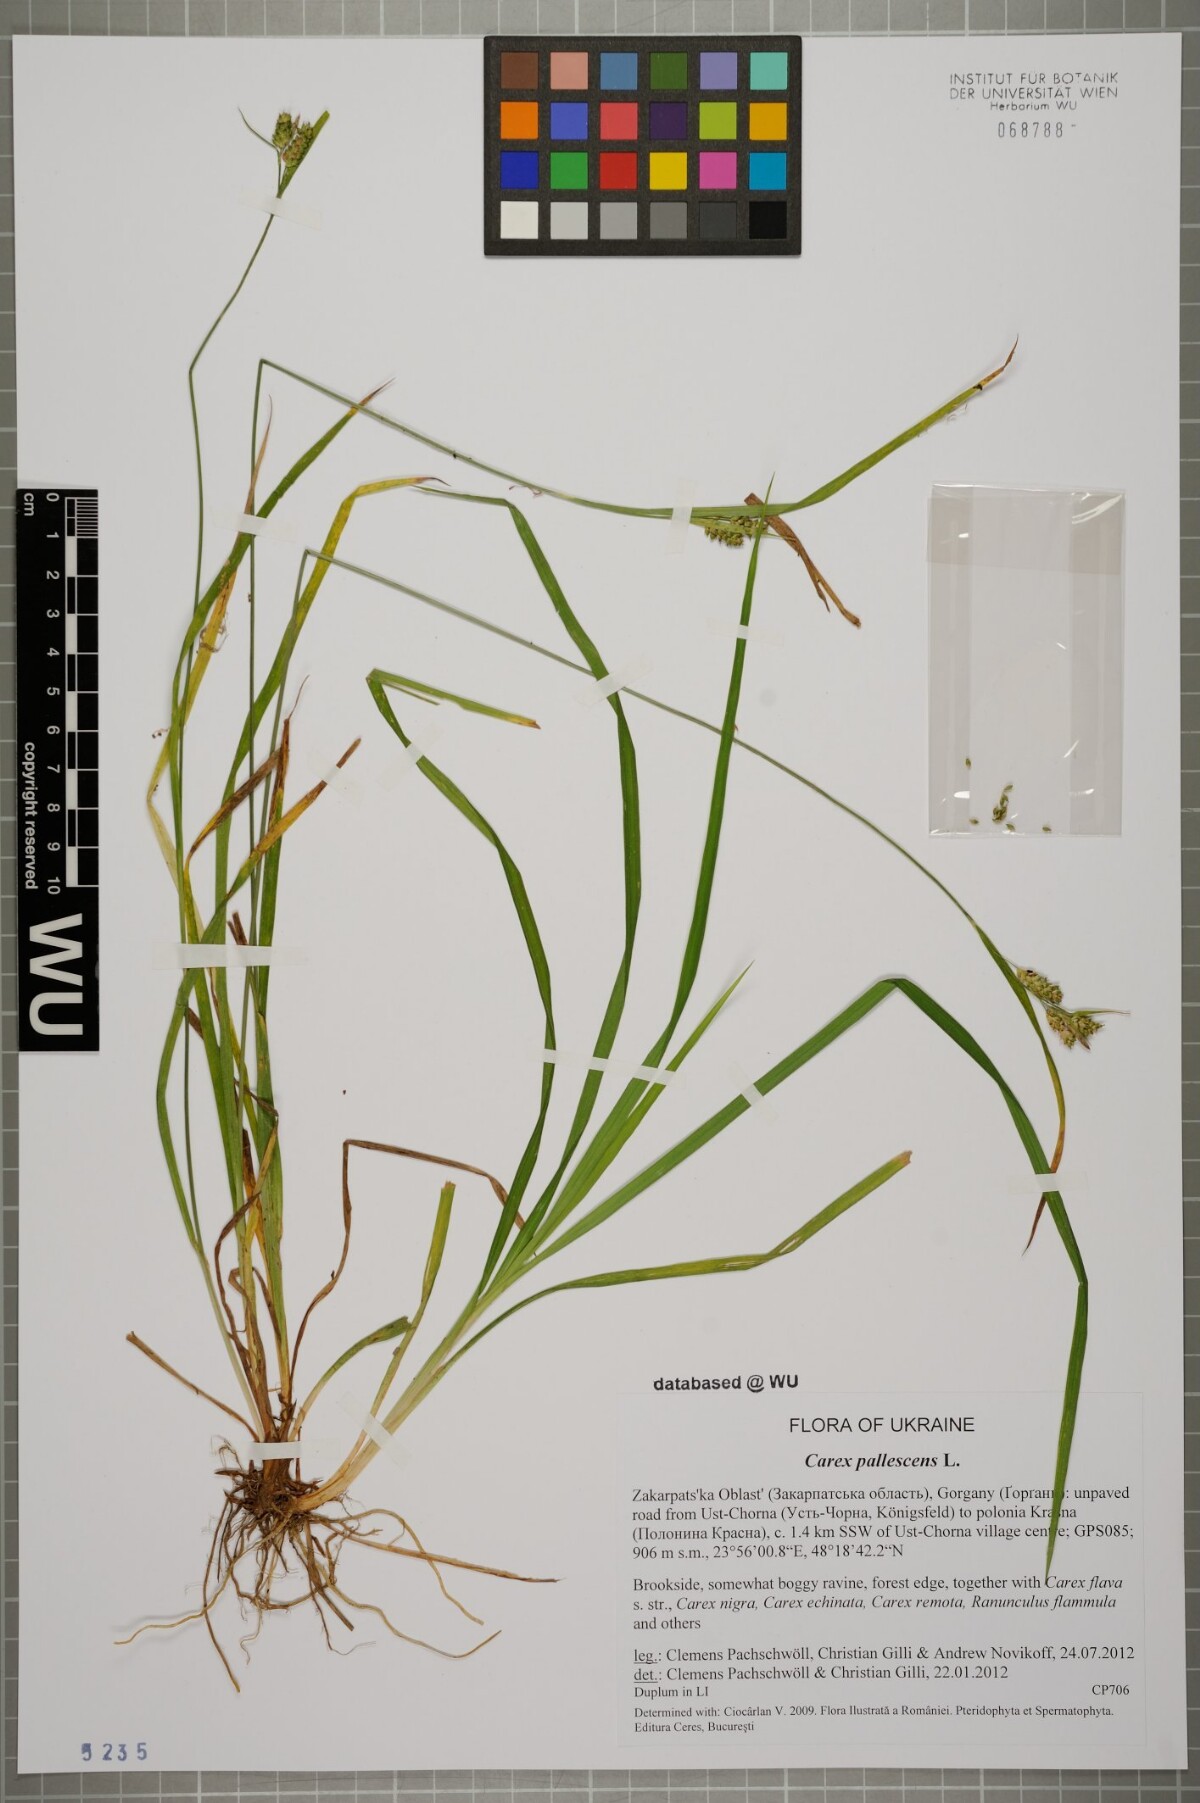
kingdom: Plantae
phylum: Tracheophyta
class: Liliopsida
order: Poales
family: Cyperaceae
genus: Carex
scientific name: Carex pallescens
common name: Pale sedge
